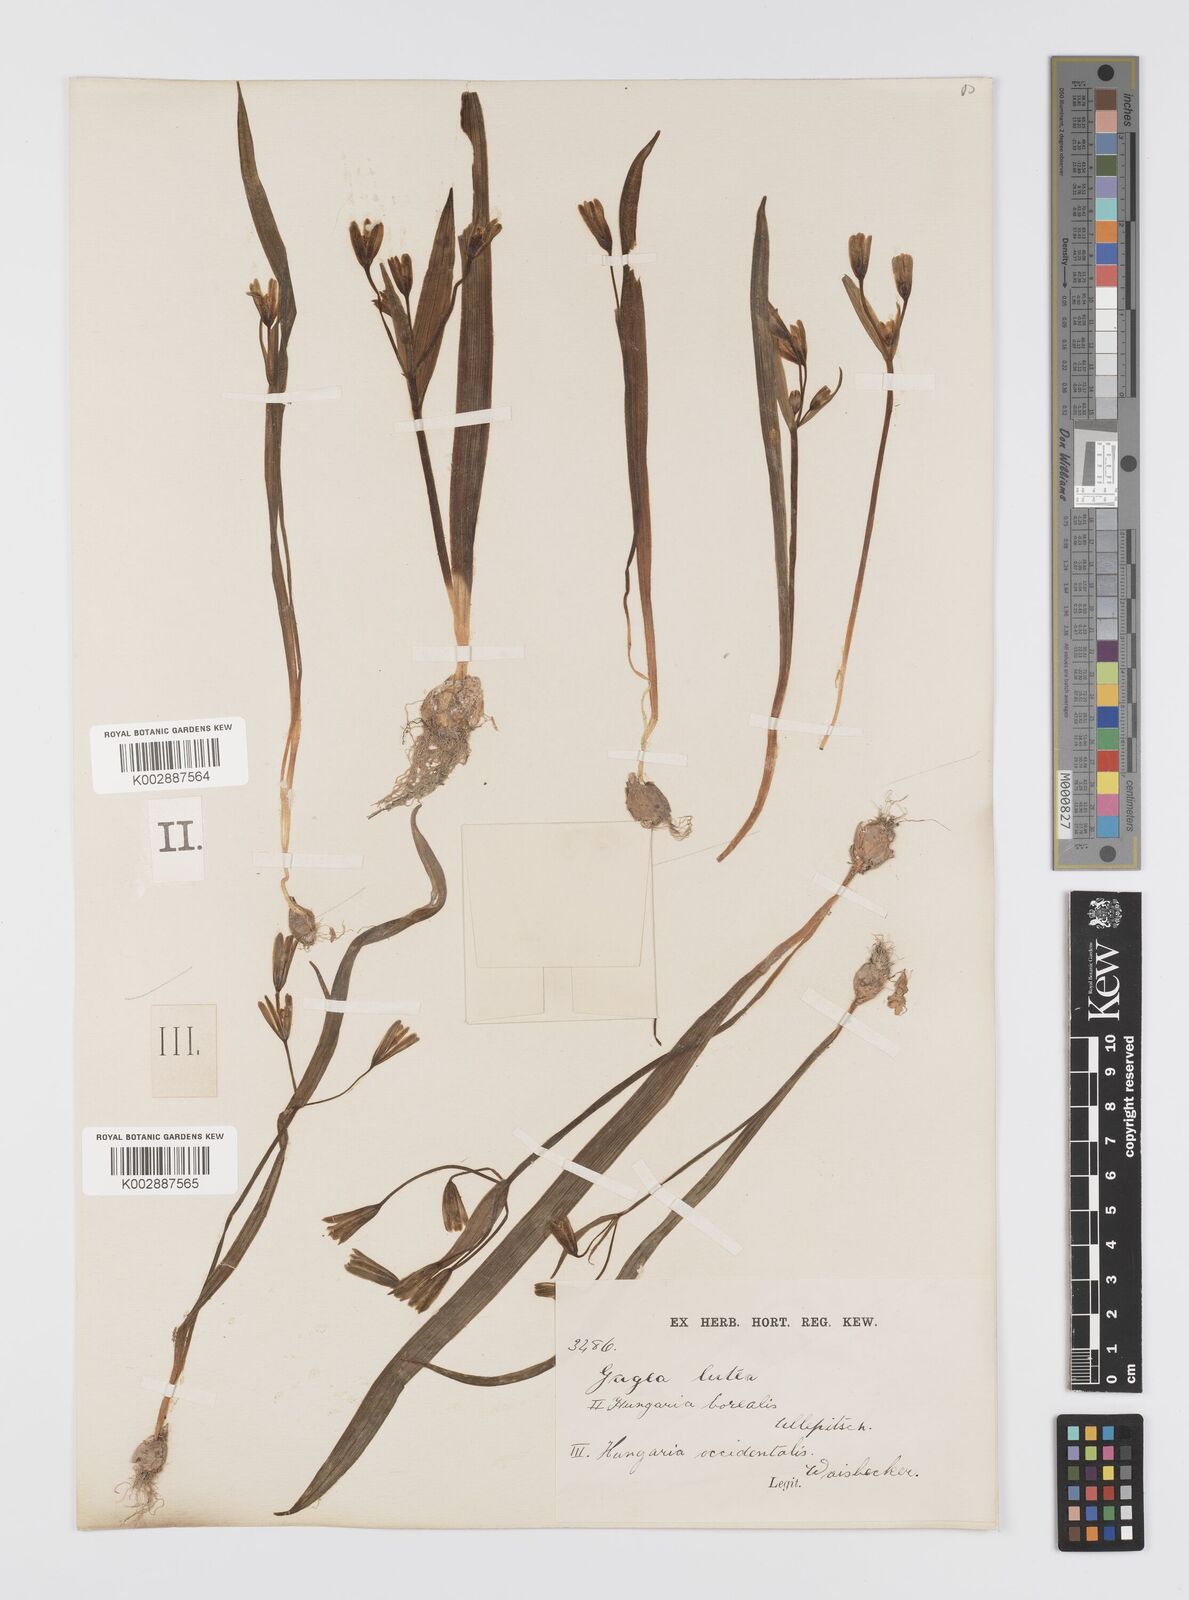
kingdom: Plantae
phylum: Tracheophyta
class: Liliopsida
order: Liliales
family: Liliaceae
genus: Gagea
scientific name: Gagea lutea
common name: Yellow star-of-bethlehem
